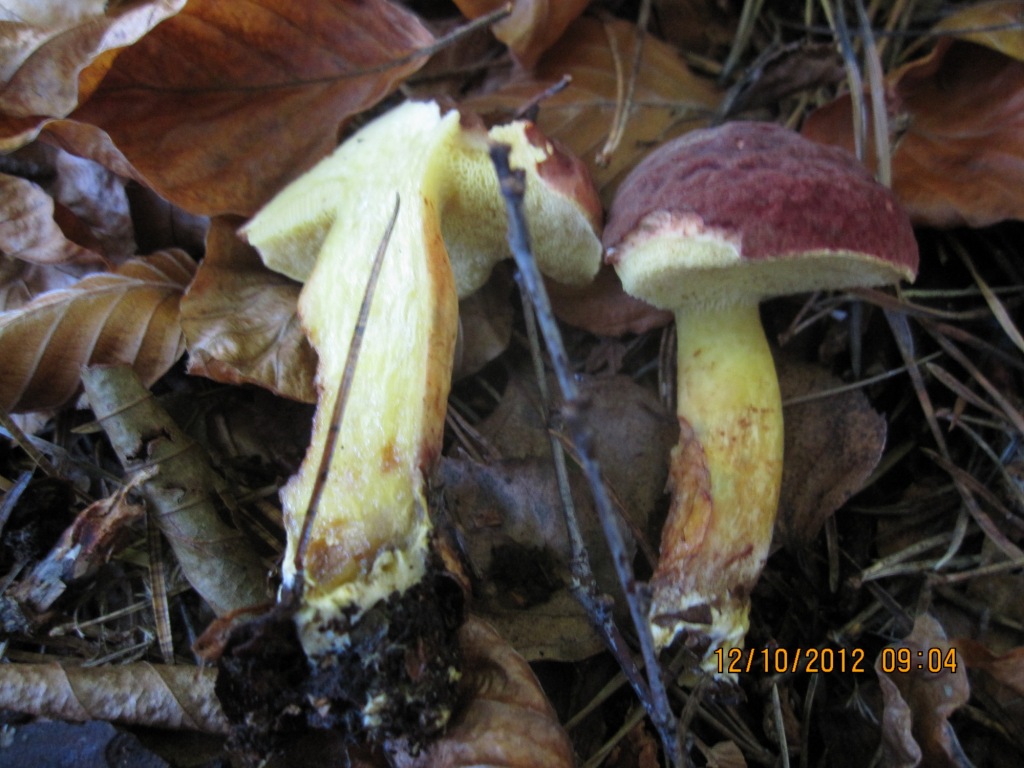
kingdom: Fungi
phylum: Basidiomycota
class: Agaricomycetes
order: Boletales
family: Boletaceae
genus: Xerocomellus
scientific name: Xerocomellus pruinatus
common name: dugget rørhat
